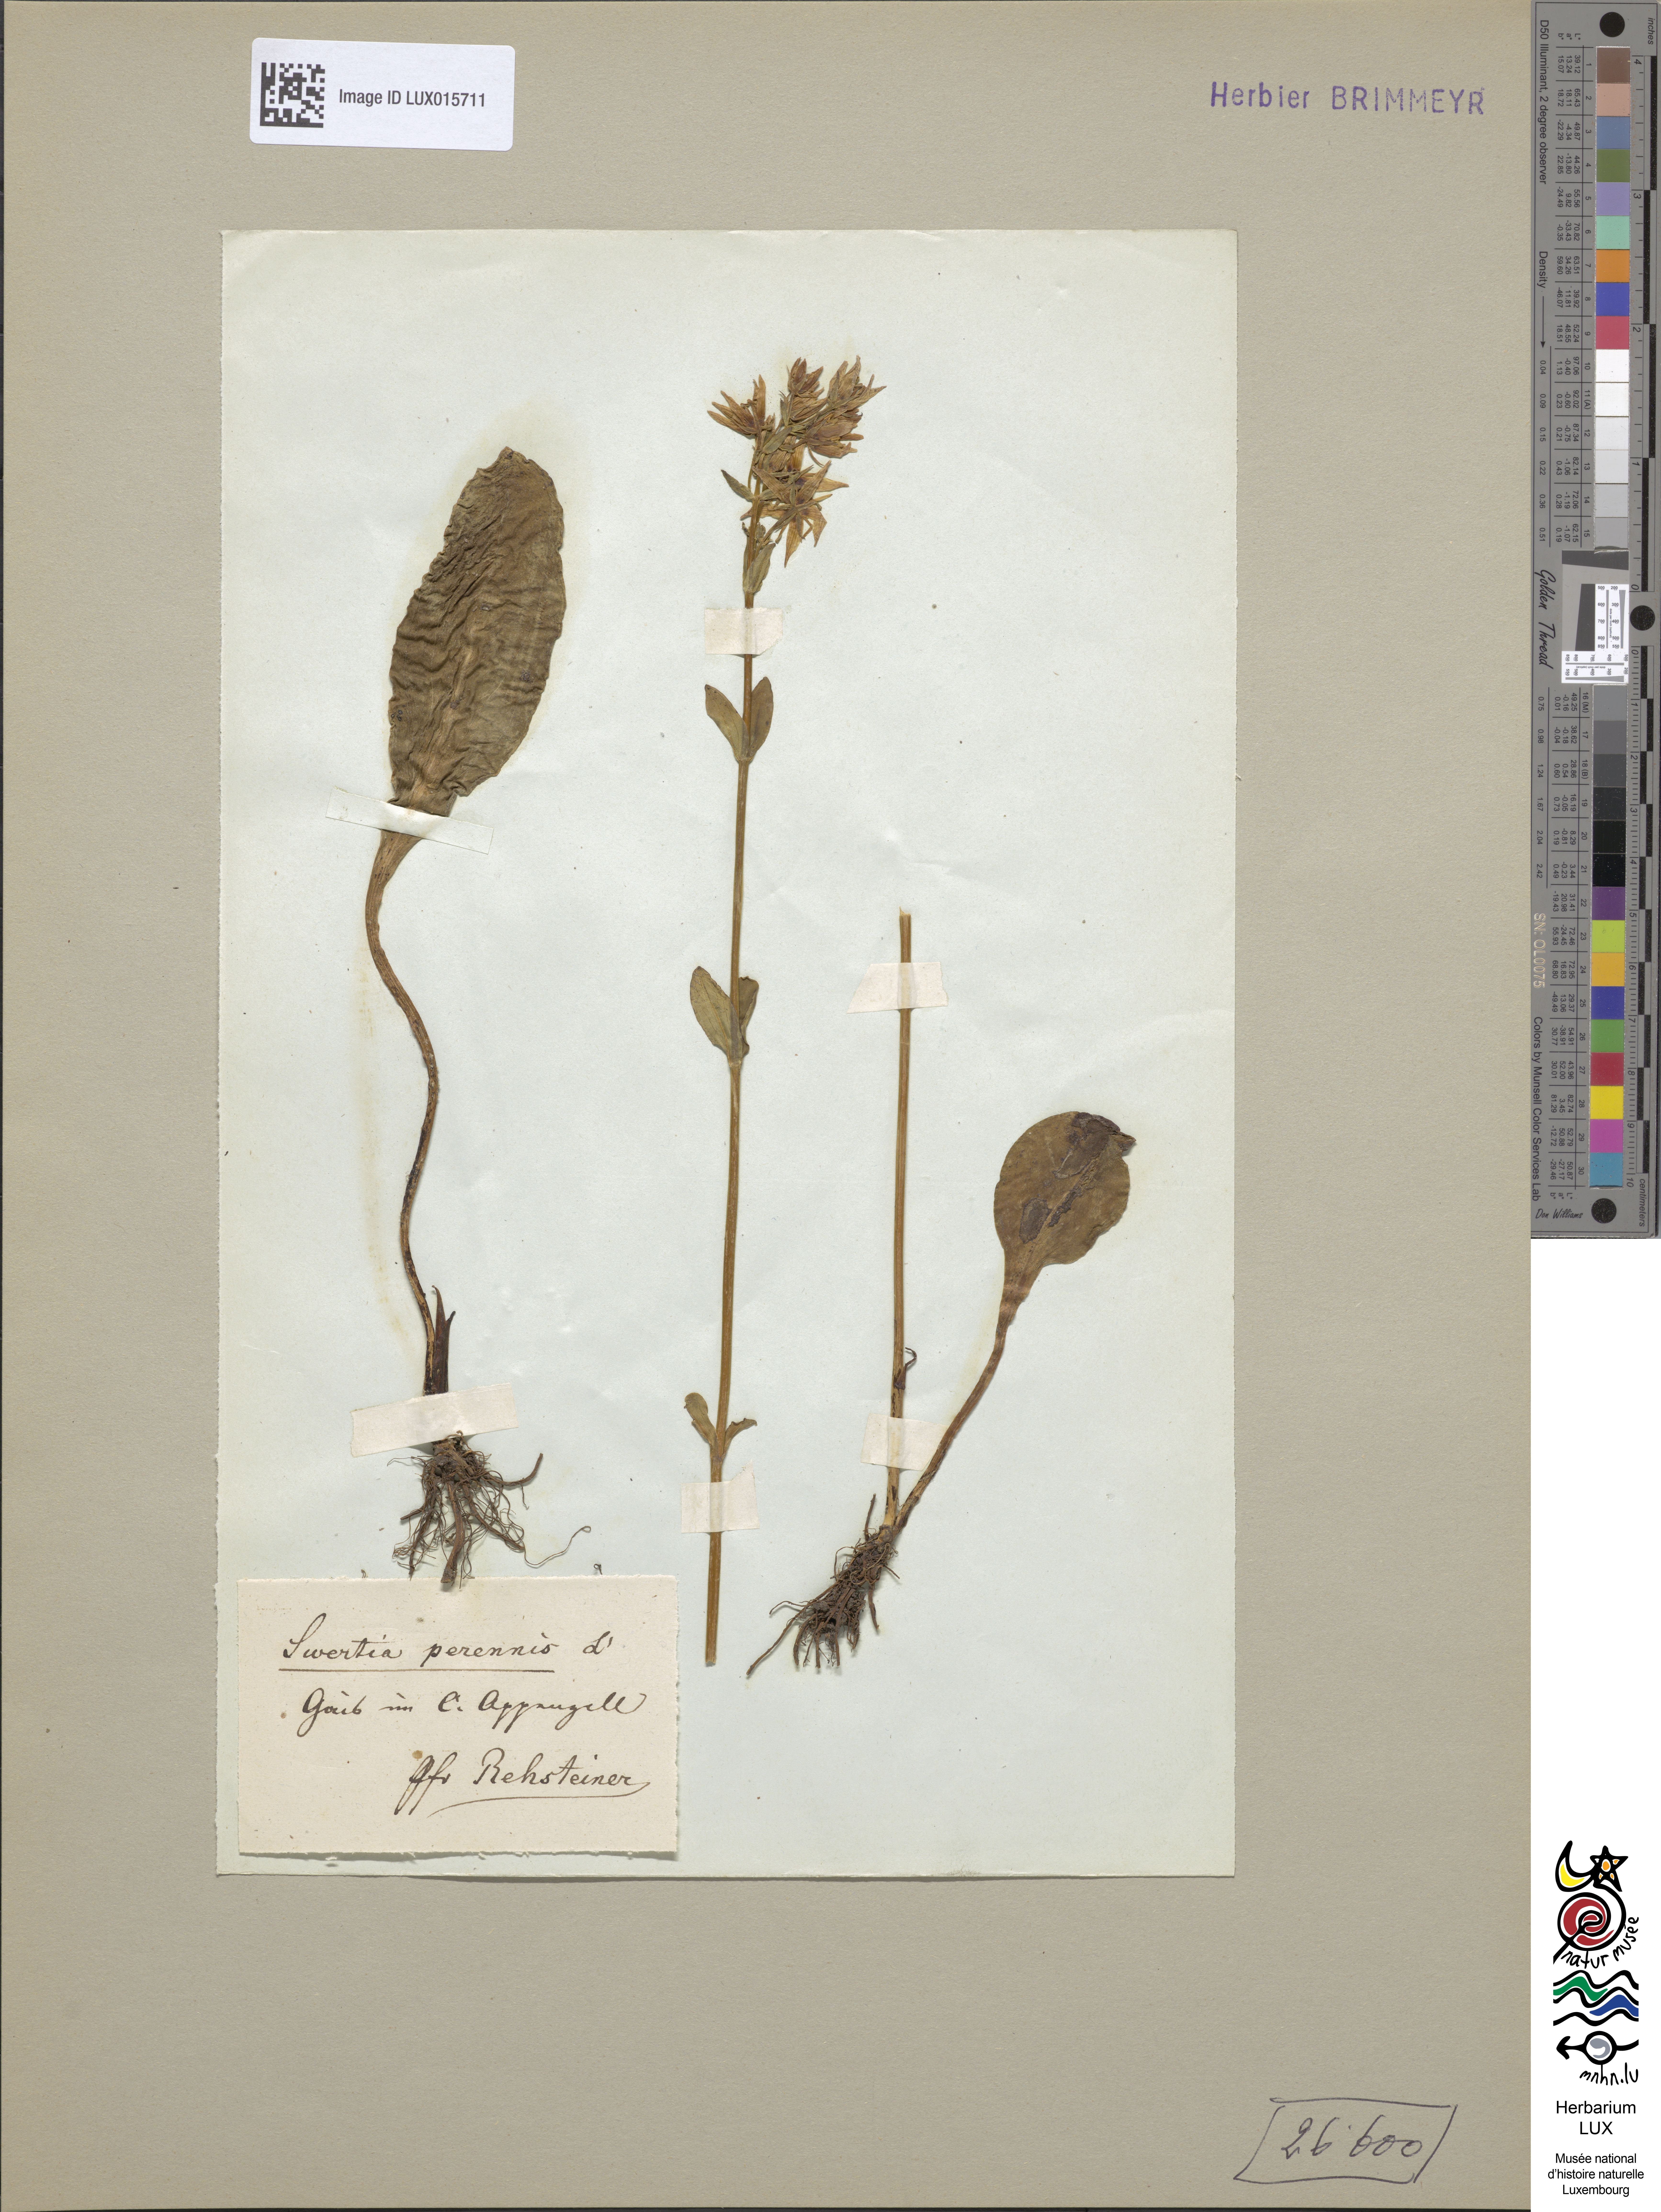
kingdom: Plantae
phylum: Tracheophyta
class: Magnoliopsida
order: Gentianales
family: Gentianaceae
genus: Swertia
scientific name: Swertia perennis
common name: Alpine bog swertia
